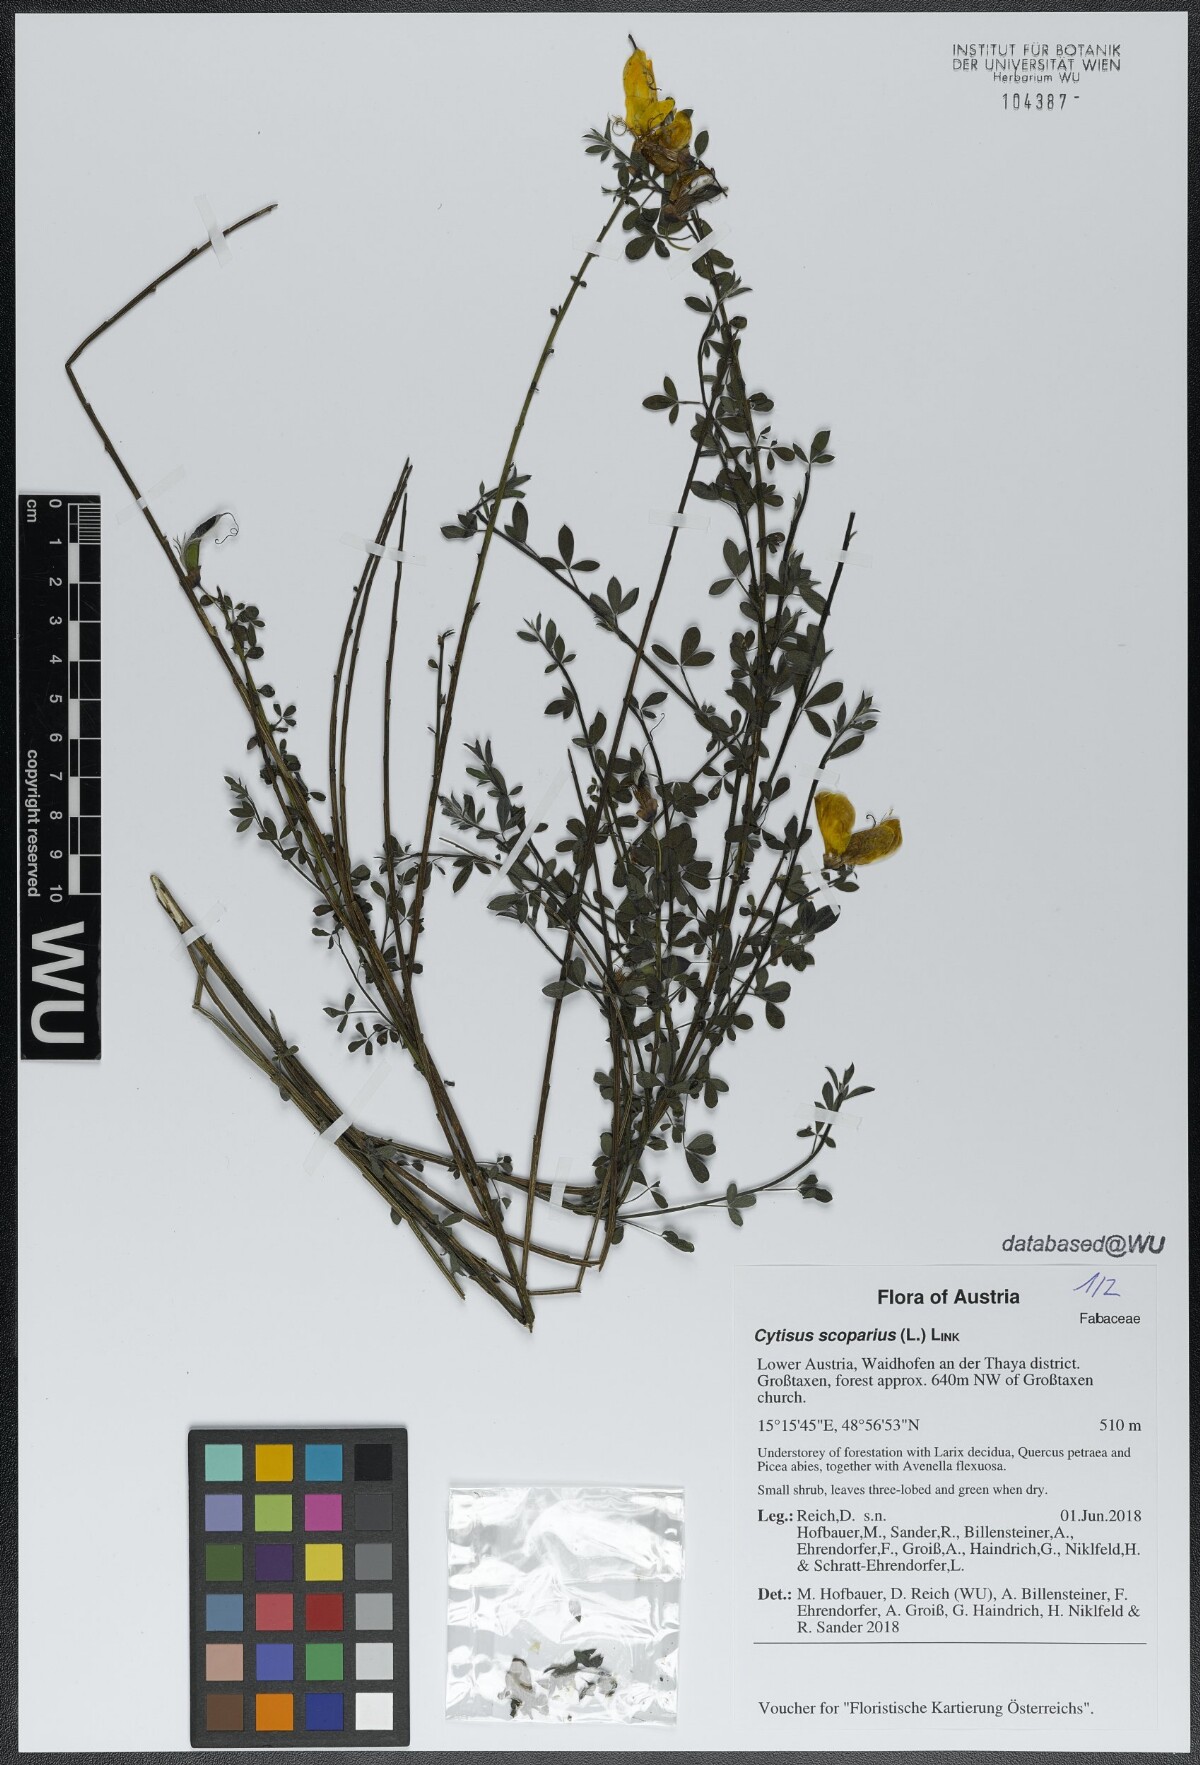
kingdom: Plantae
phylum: Tracheophyta
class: Magnoliopsida
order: Fabales
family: Fabaceae
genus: Cytisus
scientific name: Cytisus scoparius
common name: Scotch broom
